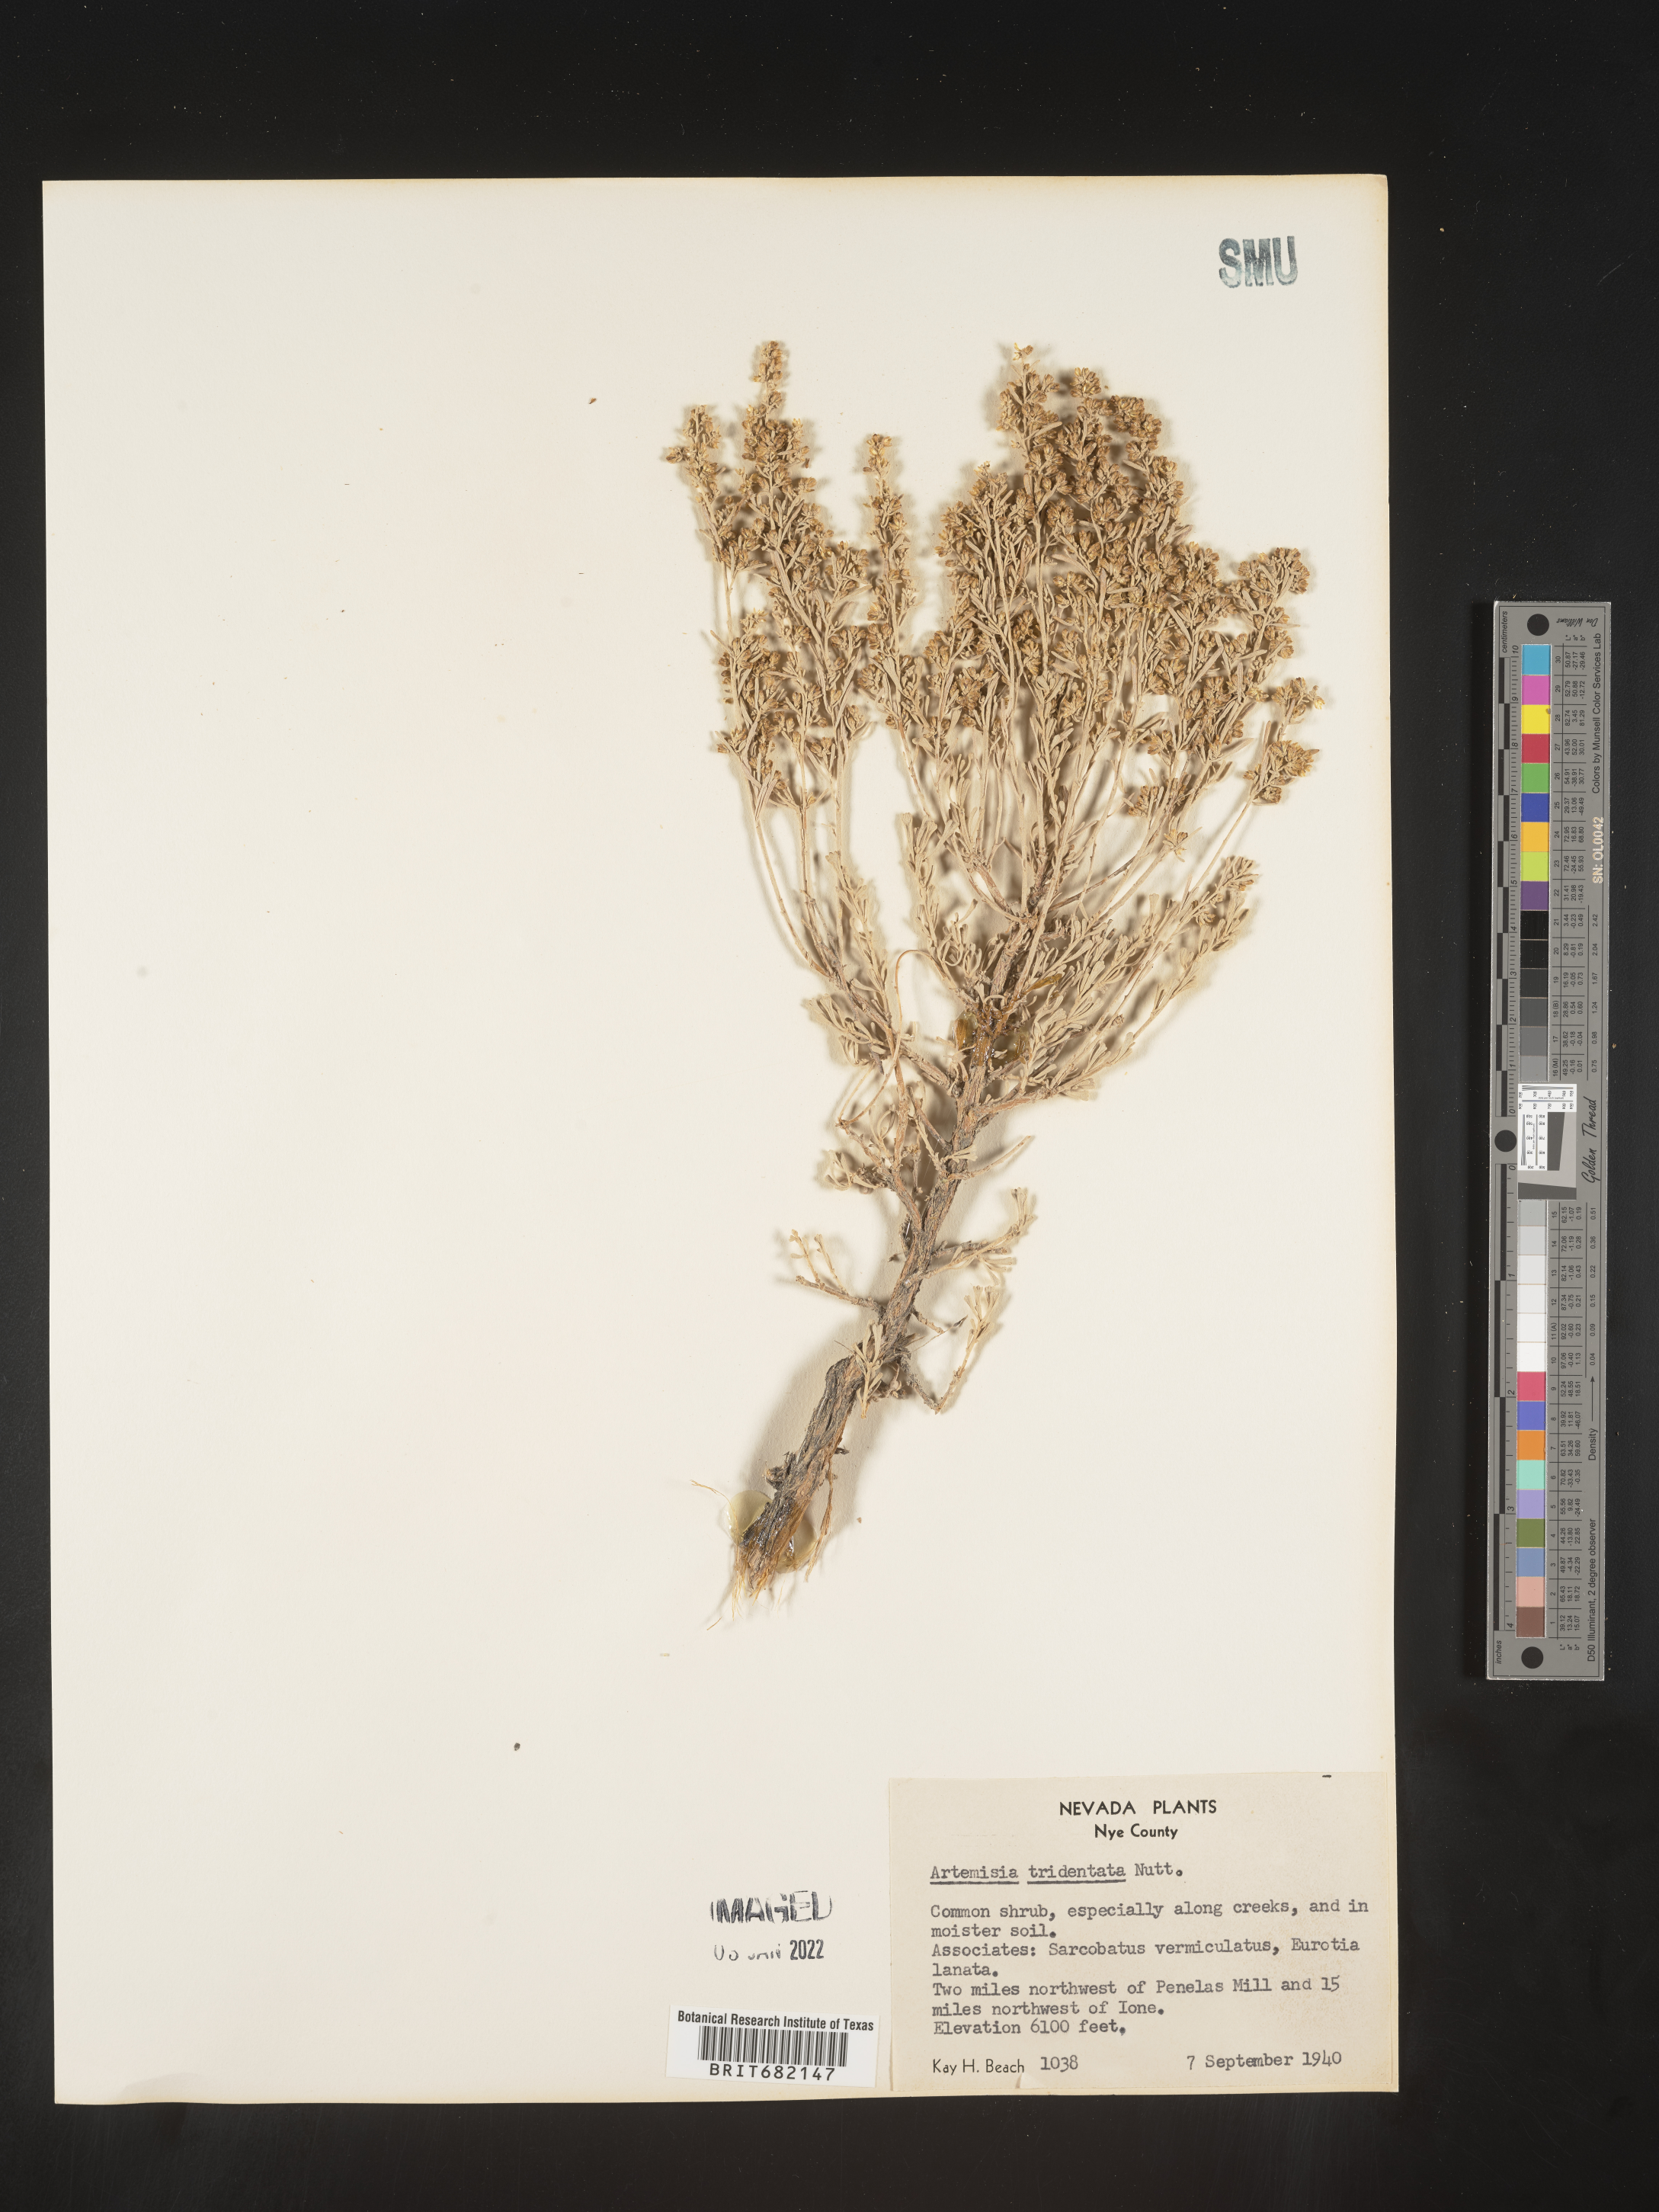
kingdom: Plantae
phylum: Tracheophyta
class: Magnoliopsida
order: Asterales
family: Asteraceae
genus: Artemisia
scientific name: Artemisia tridentata
